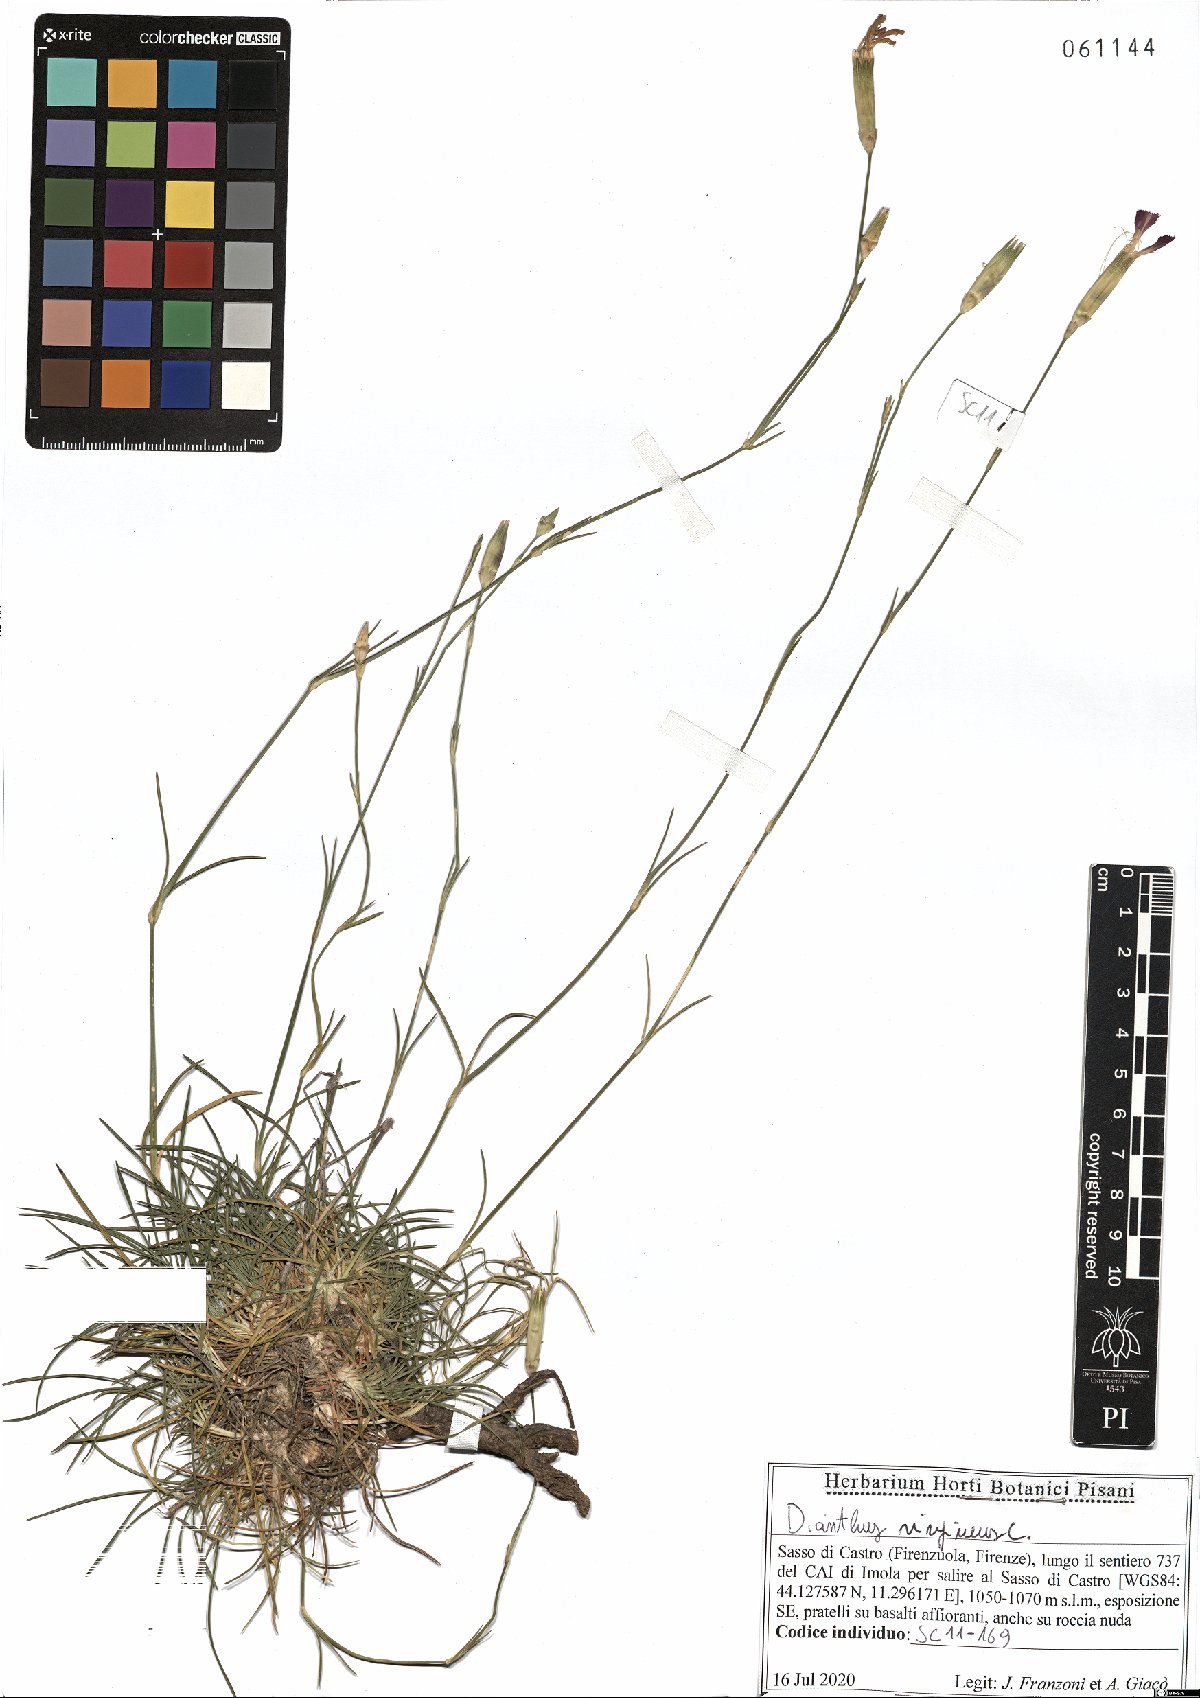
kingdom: Plantae
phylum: Tracheophyta
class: Magnoliopsida
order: Caryophyllales
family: Caryophyllaceae
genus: Dianthus
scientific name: Dianthus virgineus
